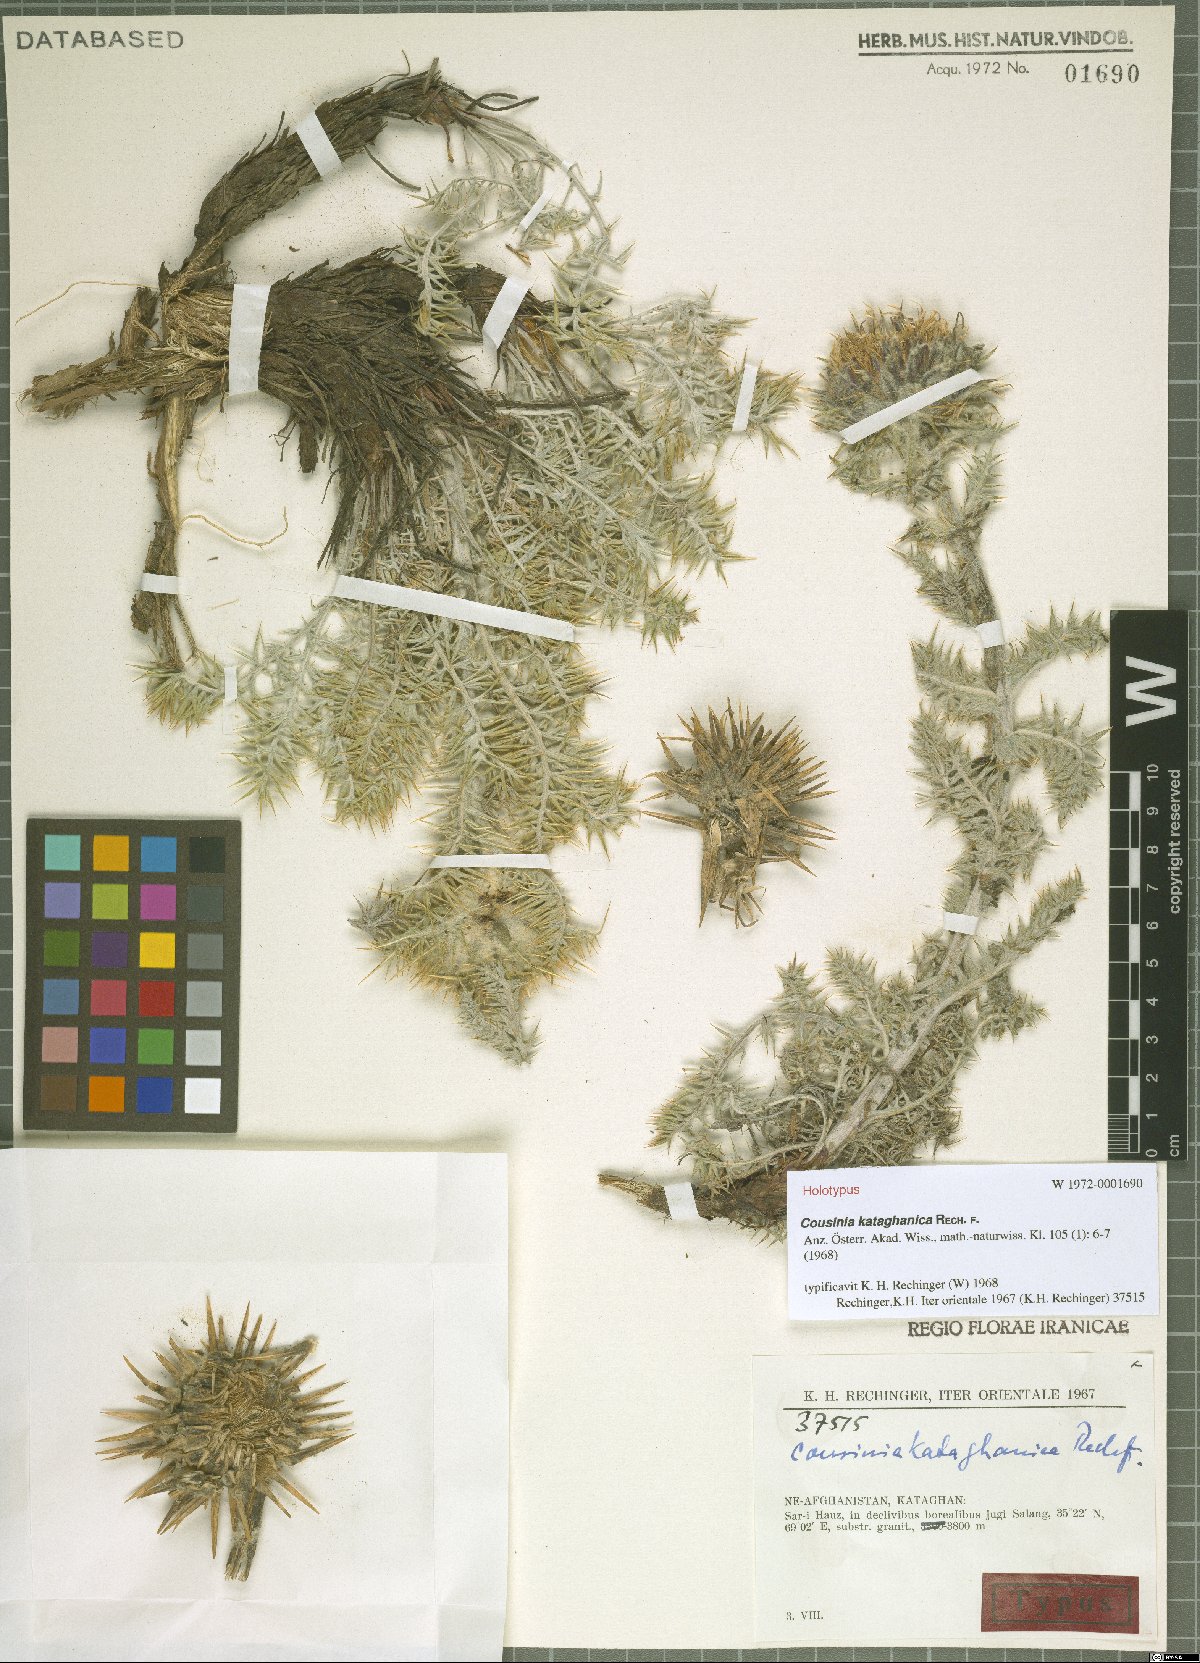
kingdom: Plantae
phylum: Tracheophyta
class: Magnoliopsida
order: Asterales
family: Asteraceae
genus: Cousinia
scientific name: Cousinia kataghanica
